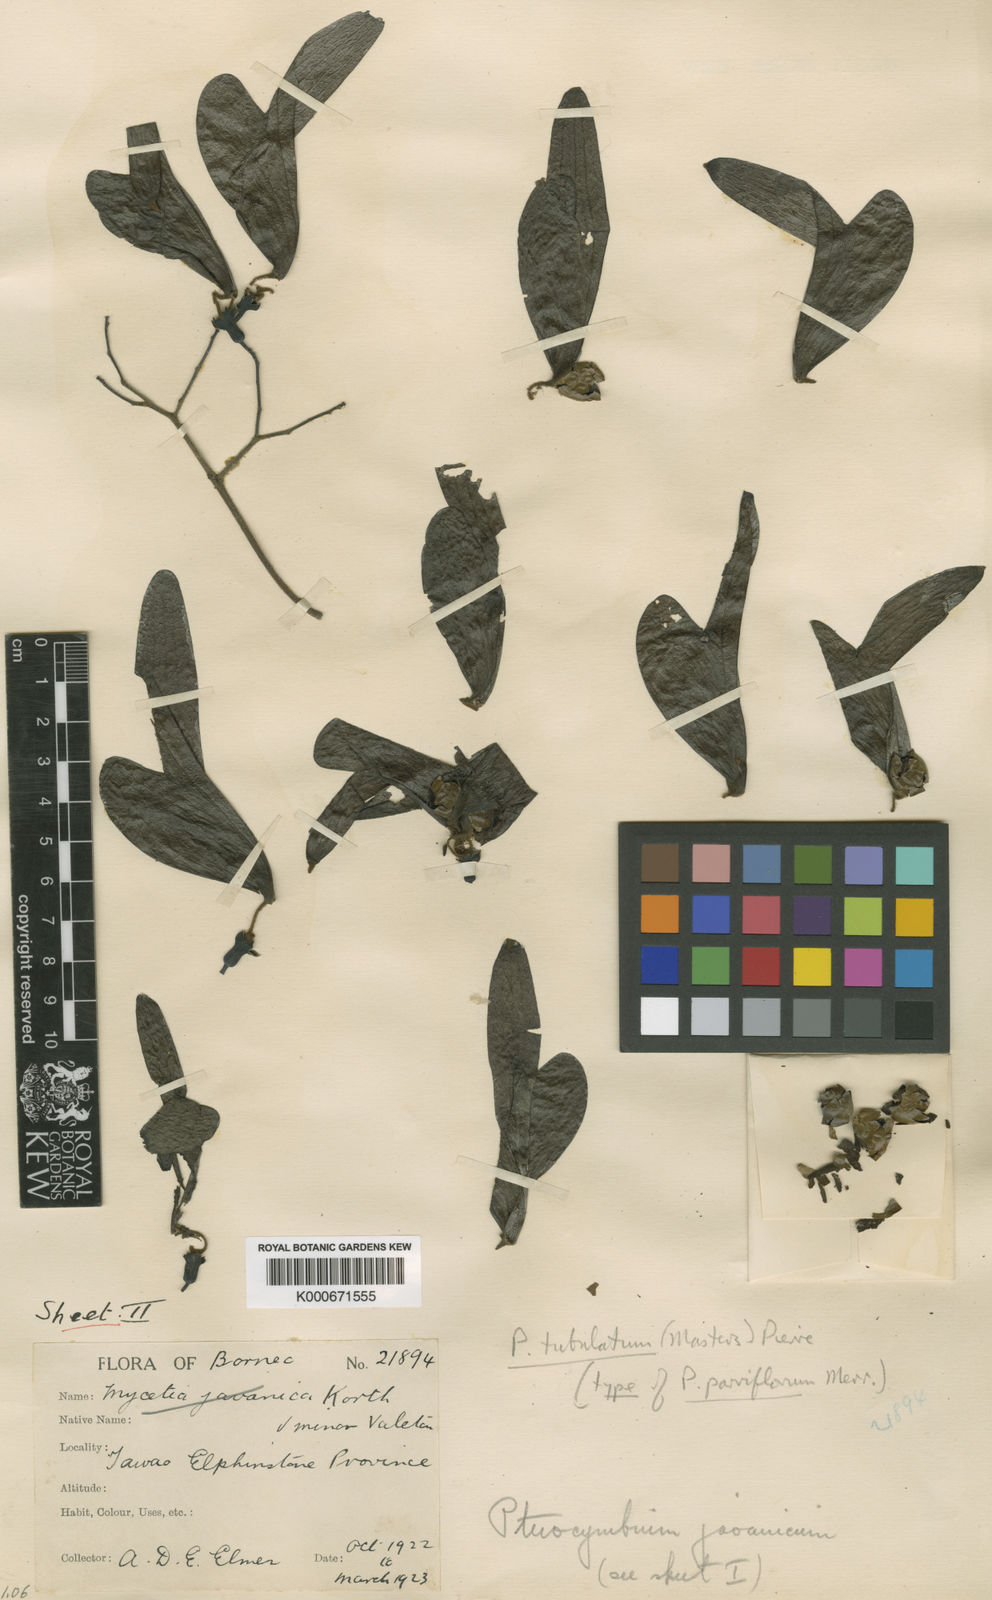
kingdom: Plantae
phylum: Tracheophyta
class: Magnoliopsida
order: Malvales
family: Malvaceae
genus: Pterocymbium
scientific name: Pterocymbium tubulatum
